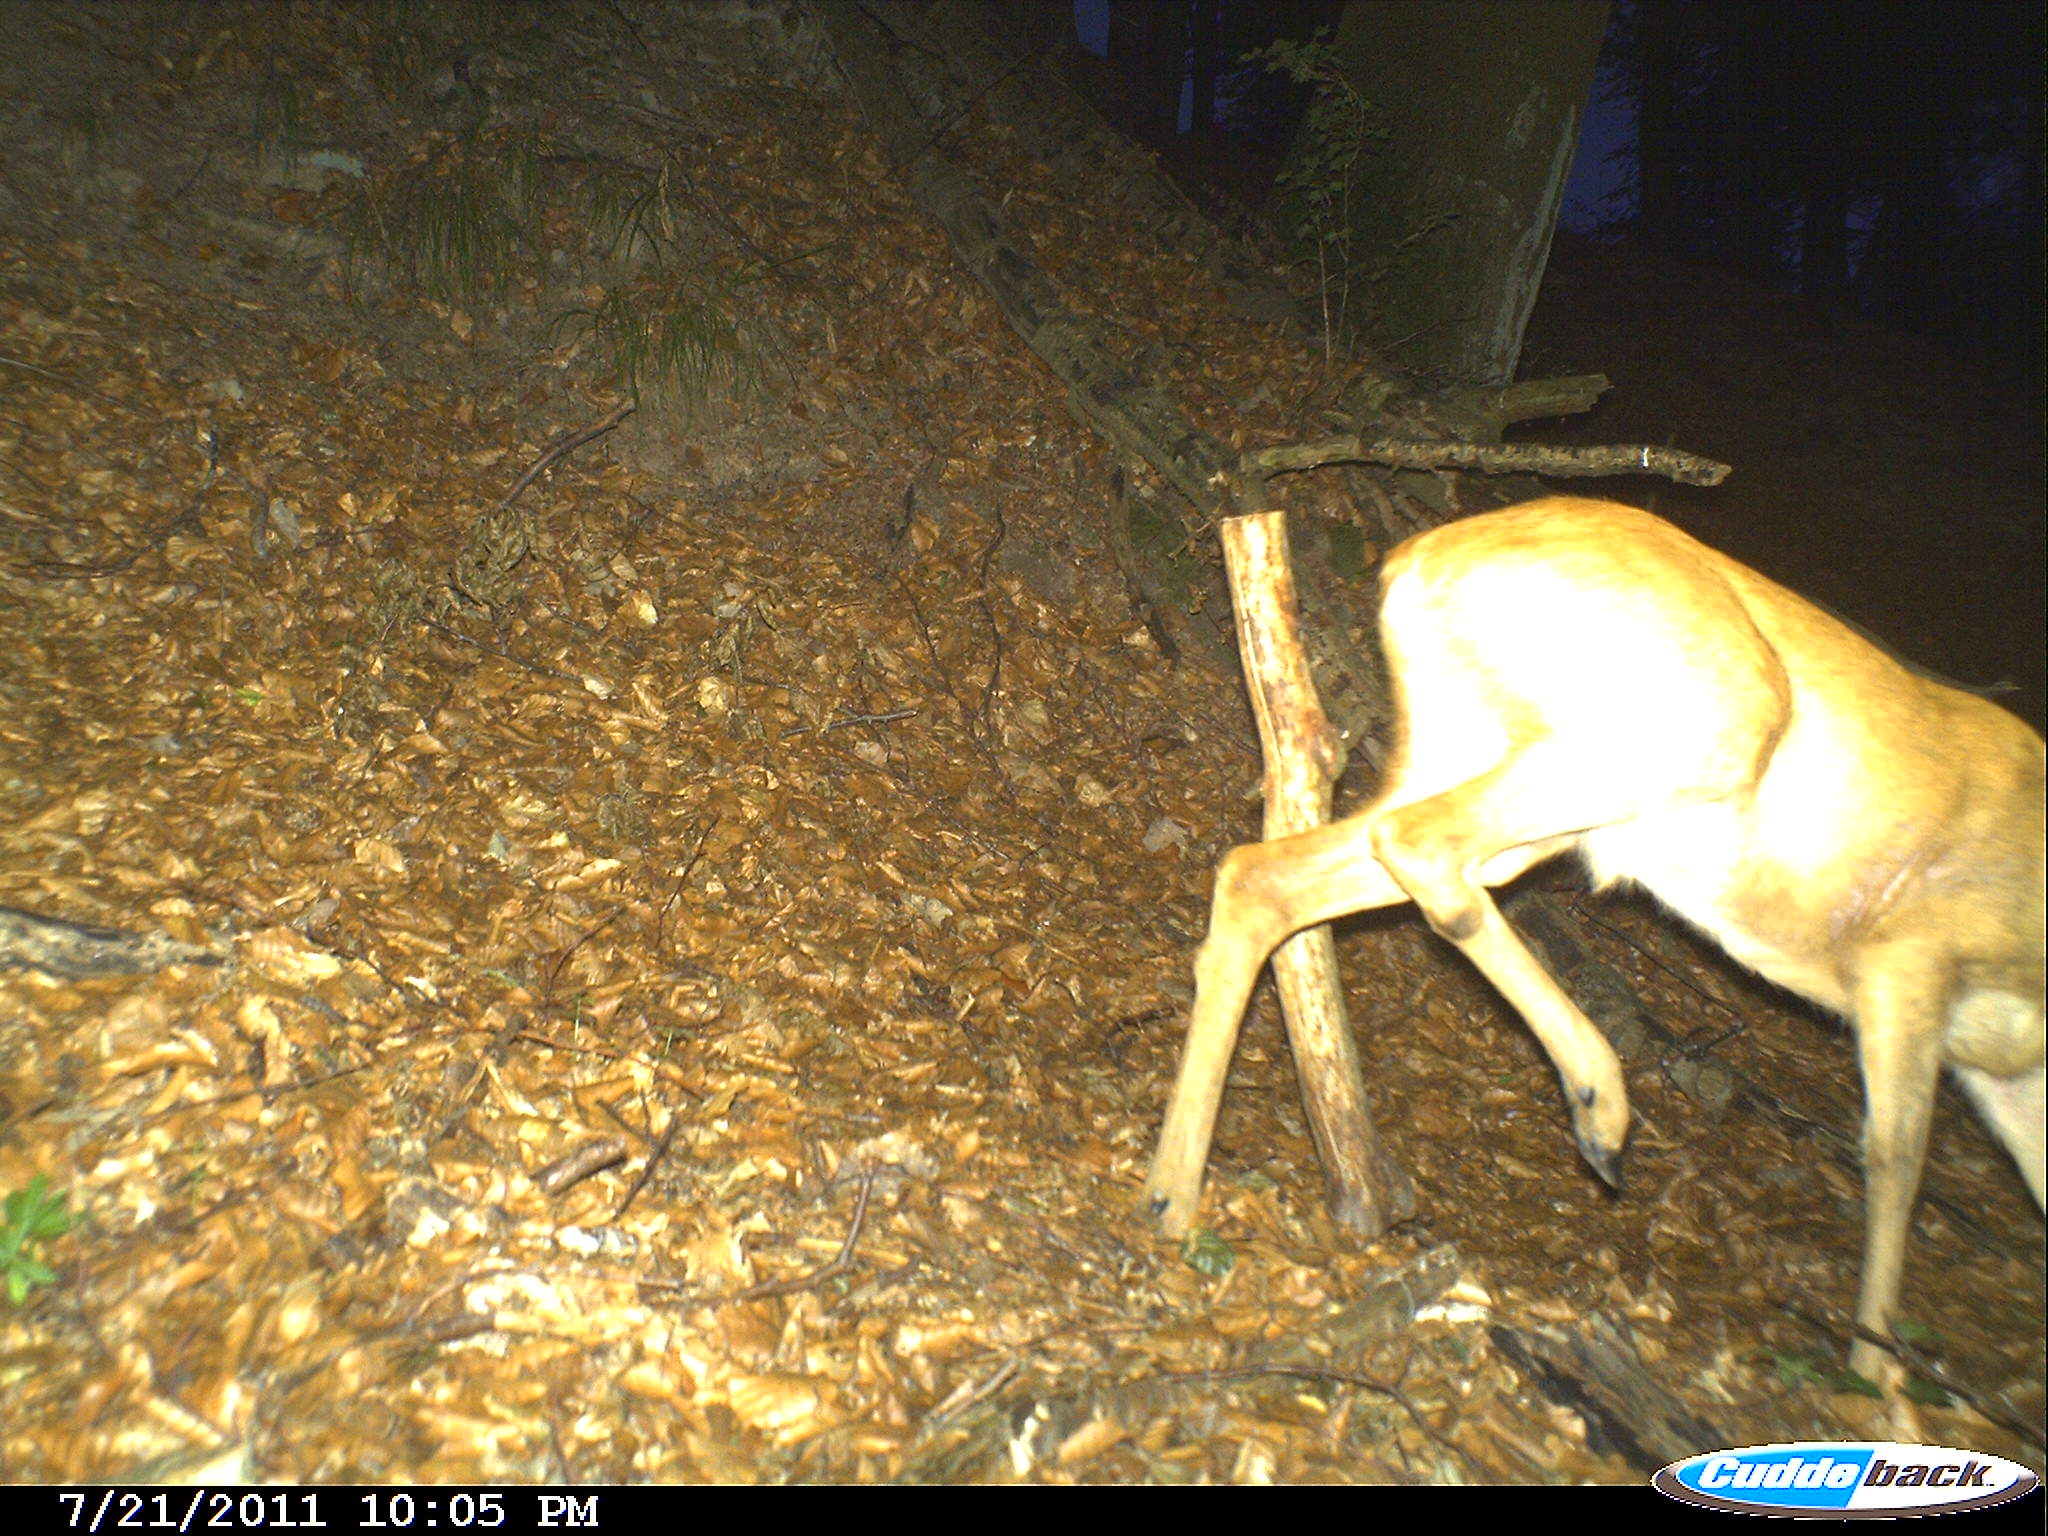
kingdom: Animalia
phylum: Chordata
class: Mammalia
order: Artiodactyla
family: Cervidae
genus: Capreolus
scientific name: Capreolus capreolus
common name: Western roe deer
